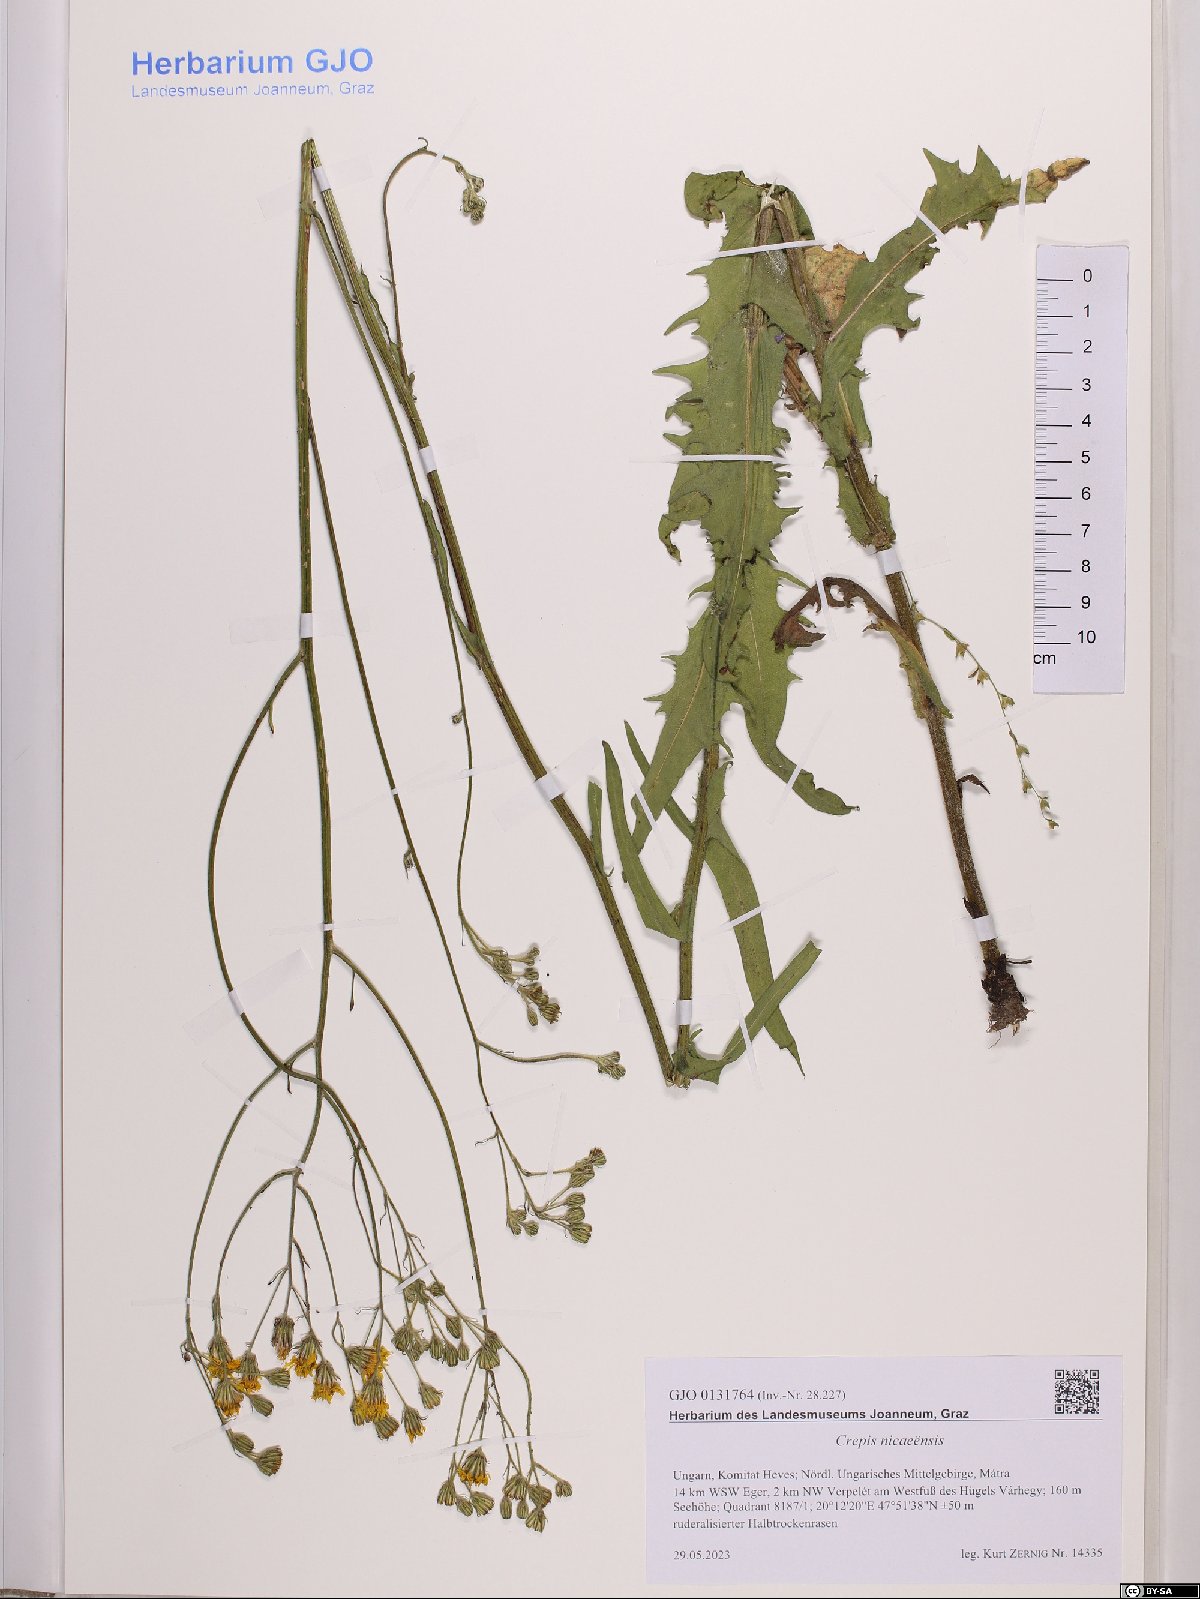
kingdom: Plantae
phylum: Tracheophyta
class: Magnoliopsida
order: Asterales
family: Asteraceae
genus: Crepis
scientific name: Crepis nicaeensis
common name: Turkish hawksbeard
